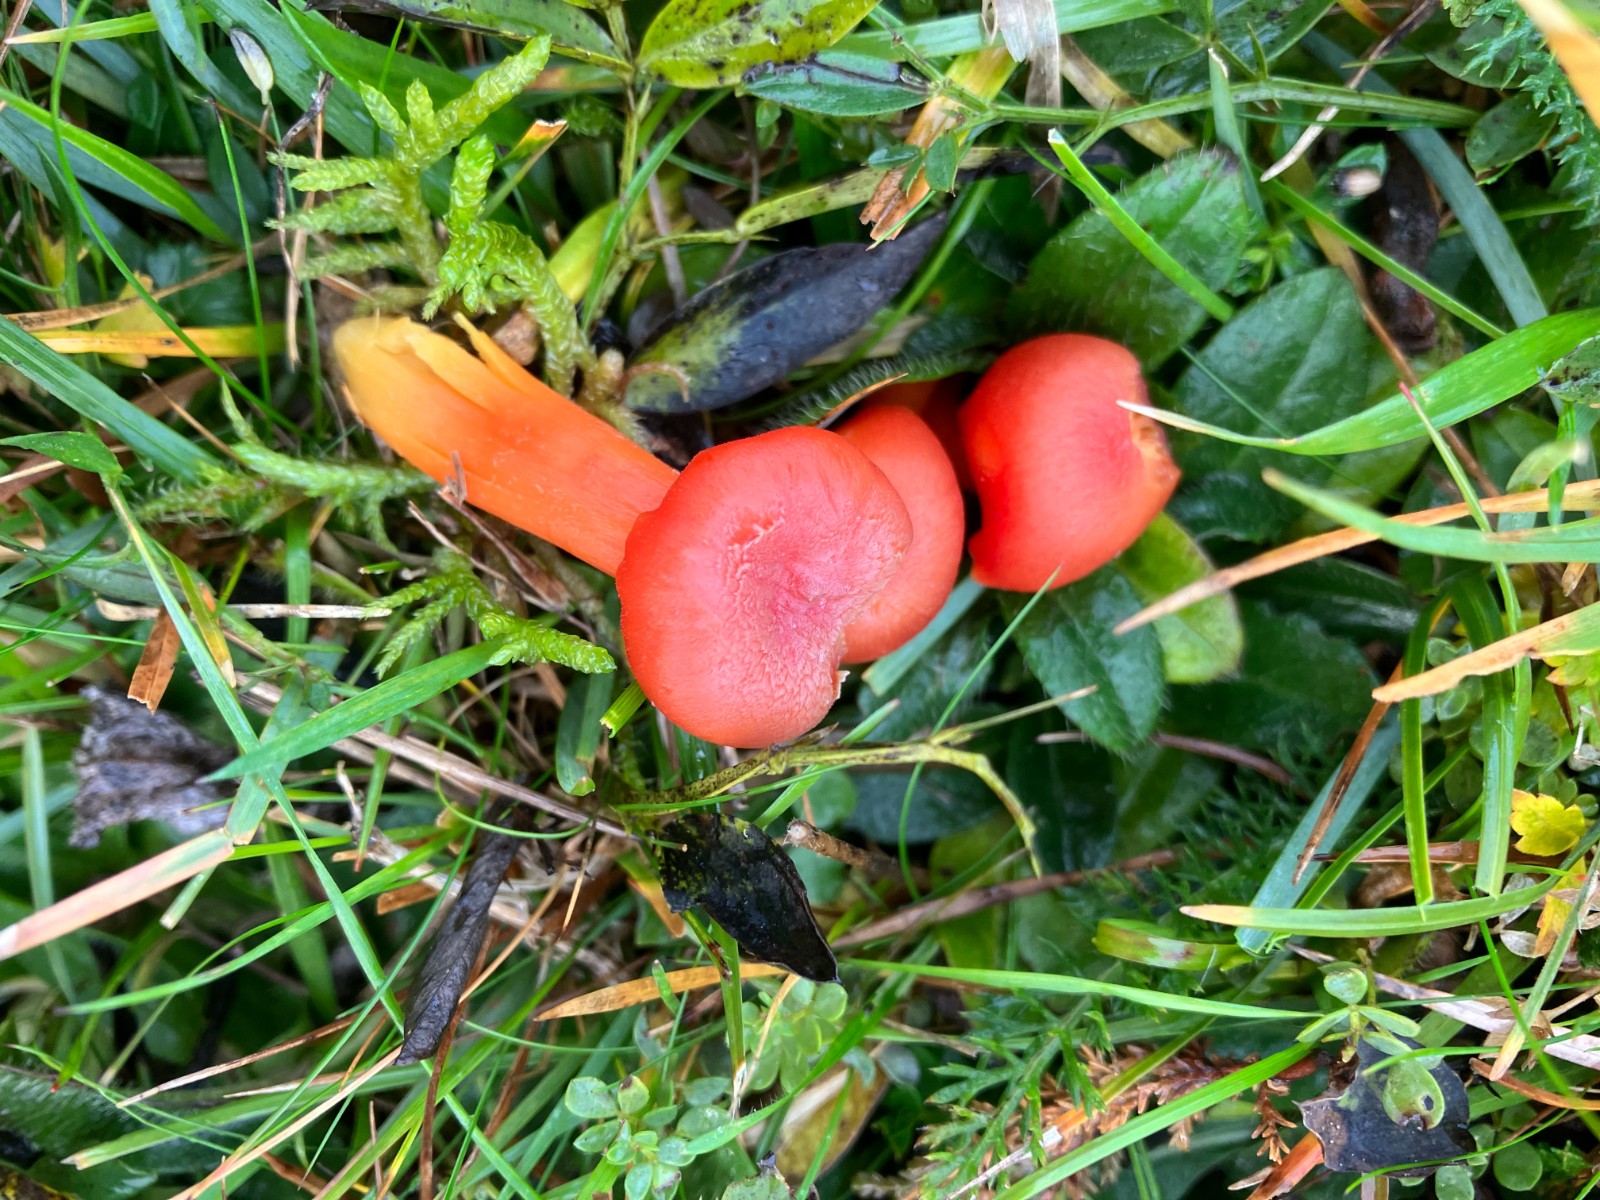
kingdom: Fungi
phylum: Basidiomycota
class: Agaricomycetes
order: Agaricales
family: Hygrophoraceae
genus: Hygrocybe
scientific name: Hygrocybe miniata
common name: mønje-vokshat
